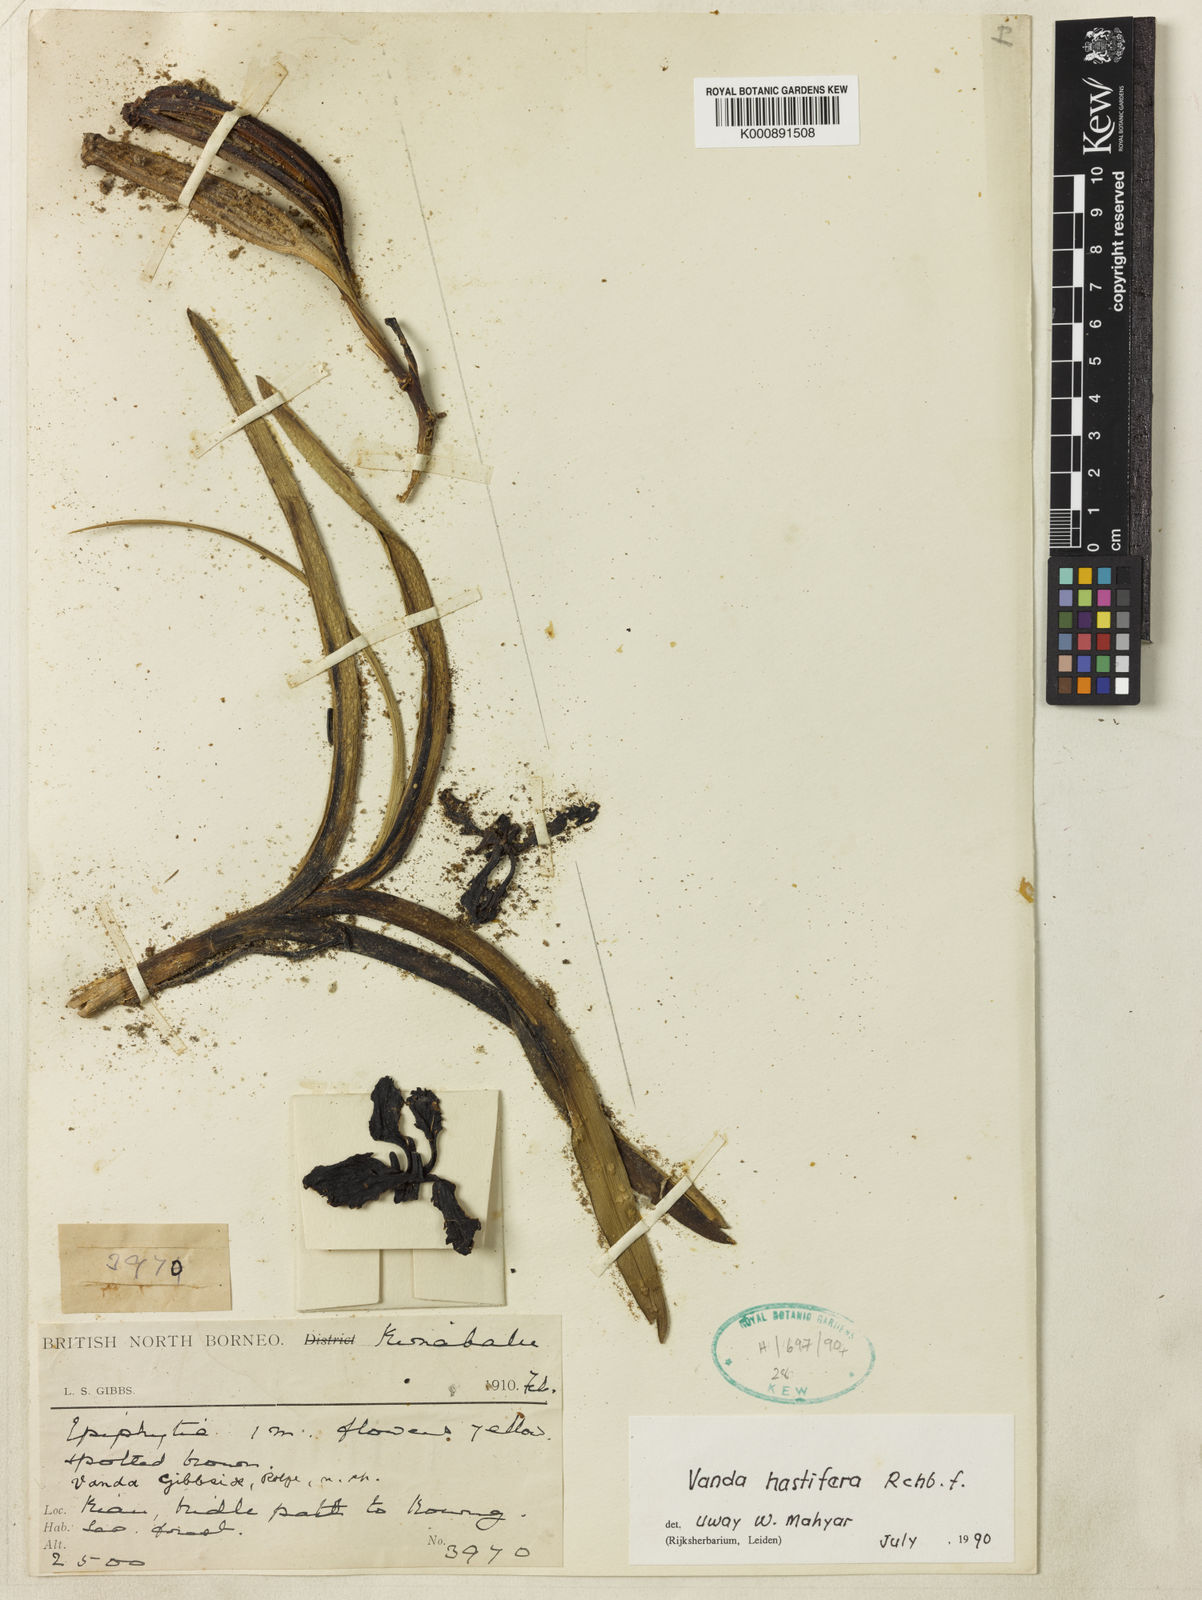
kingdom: Plantae
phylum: Tracheophyta
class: Liliopsida
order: Asparagales
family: Orchidaceae
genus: Vanda
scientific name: Vanda gibbsiae
